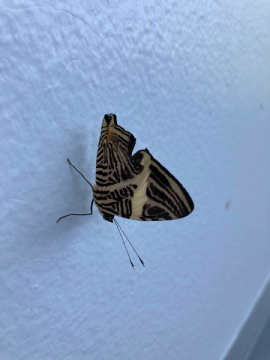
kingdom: Animalia
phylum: Arthropoda
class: Insecta
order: Lepidoptera
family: Nymphalidae
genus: Colobura
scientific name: Colobura dirce
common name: Dirce Beauty
